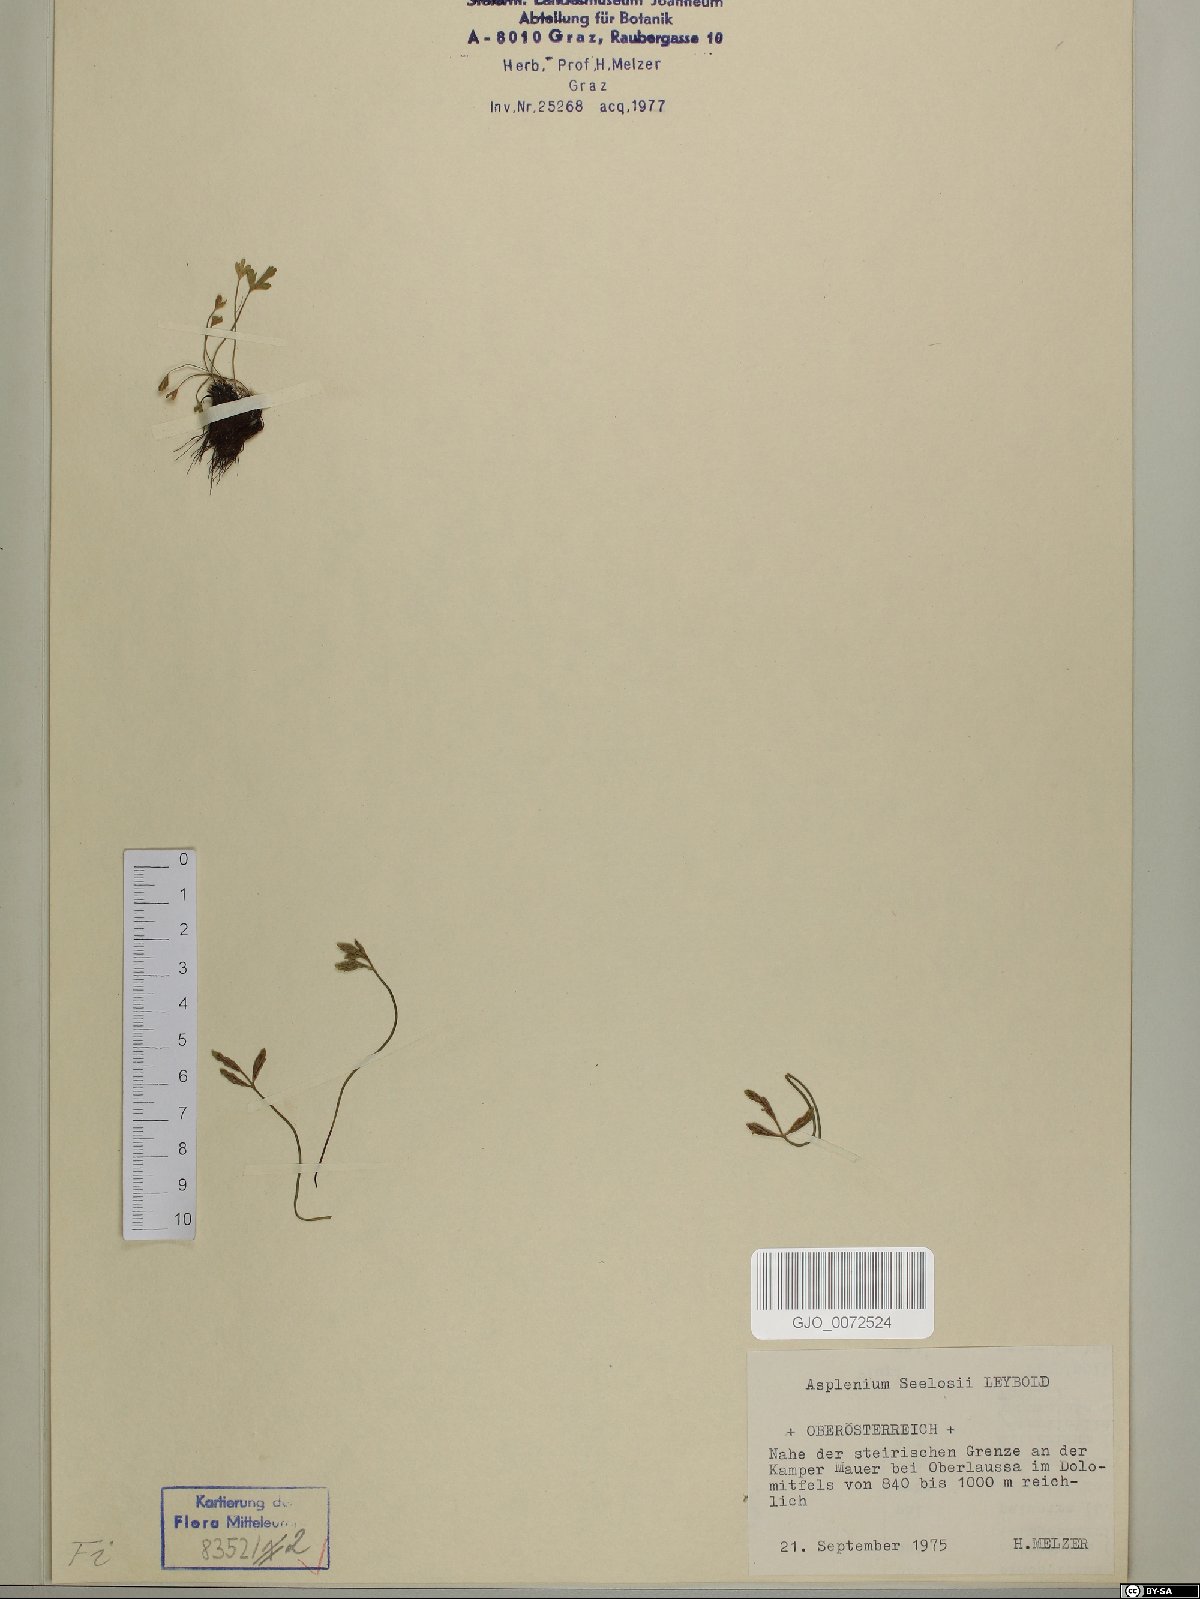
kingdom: Plantae
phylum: Tracheophyta
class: Polypodiopsida
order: Polypodiales
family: Aspleniaceae
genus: Asplenium
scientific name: Asplenium seelosii
